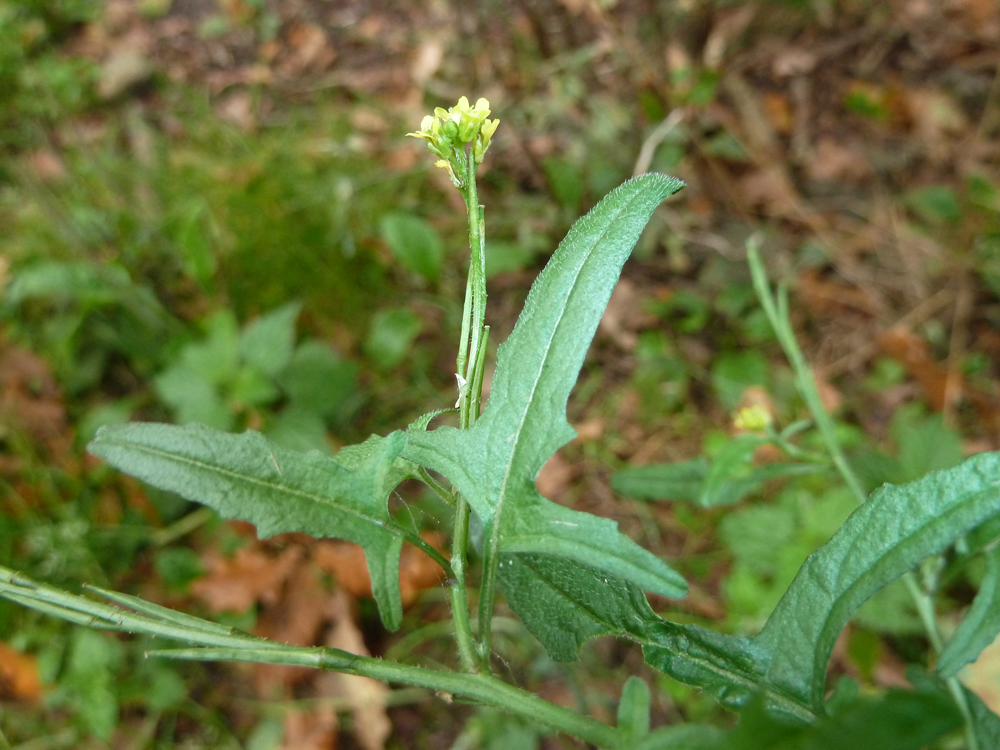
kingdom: Plantae
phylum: Tracheophyta
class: Magnoliopsida
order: Brassicales
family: Brassicaceae
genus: Sisymbrium
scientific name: Sisymbrium officinale
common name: Hedge mustard
